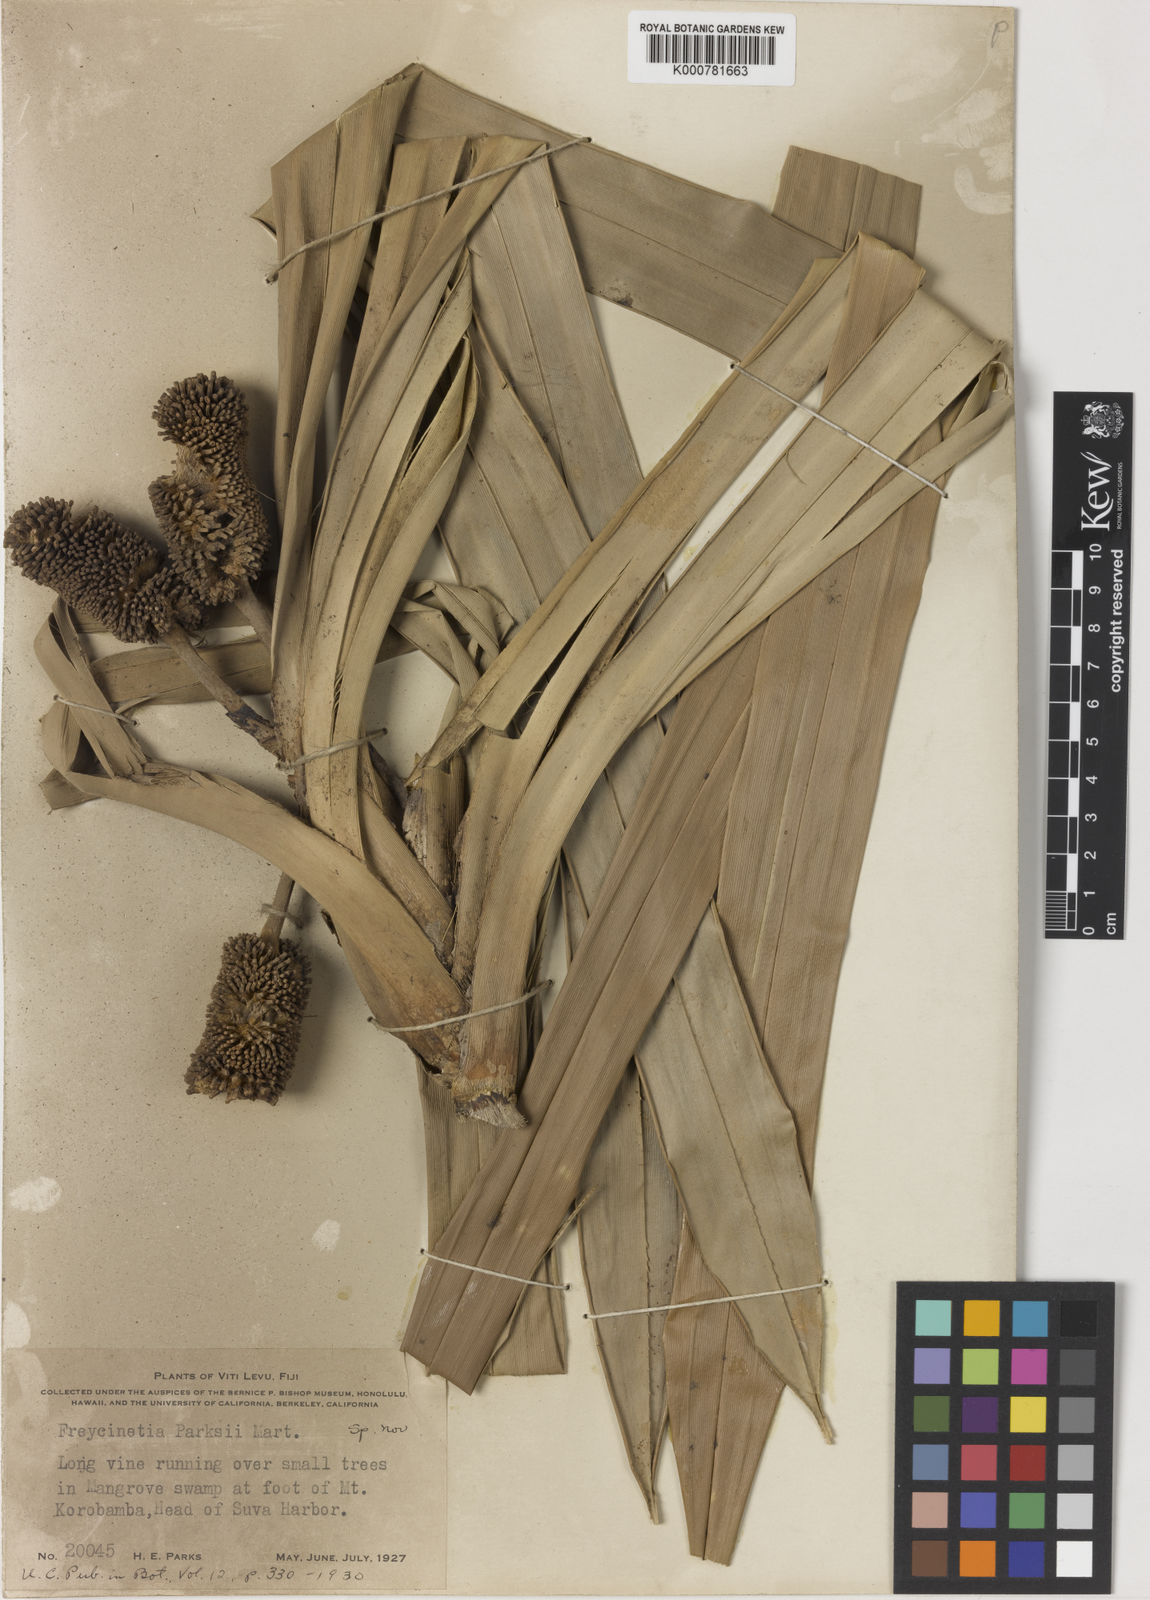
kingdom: Plantae
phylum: Tracheophyta
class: Liliopsida
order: Pandanales
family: Pandanaceae
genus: Freycinetia
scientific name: Freycinetia demissa
